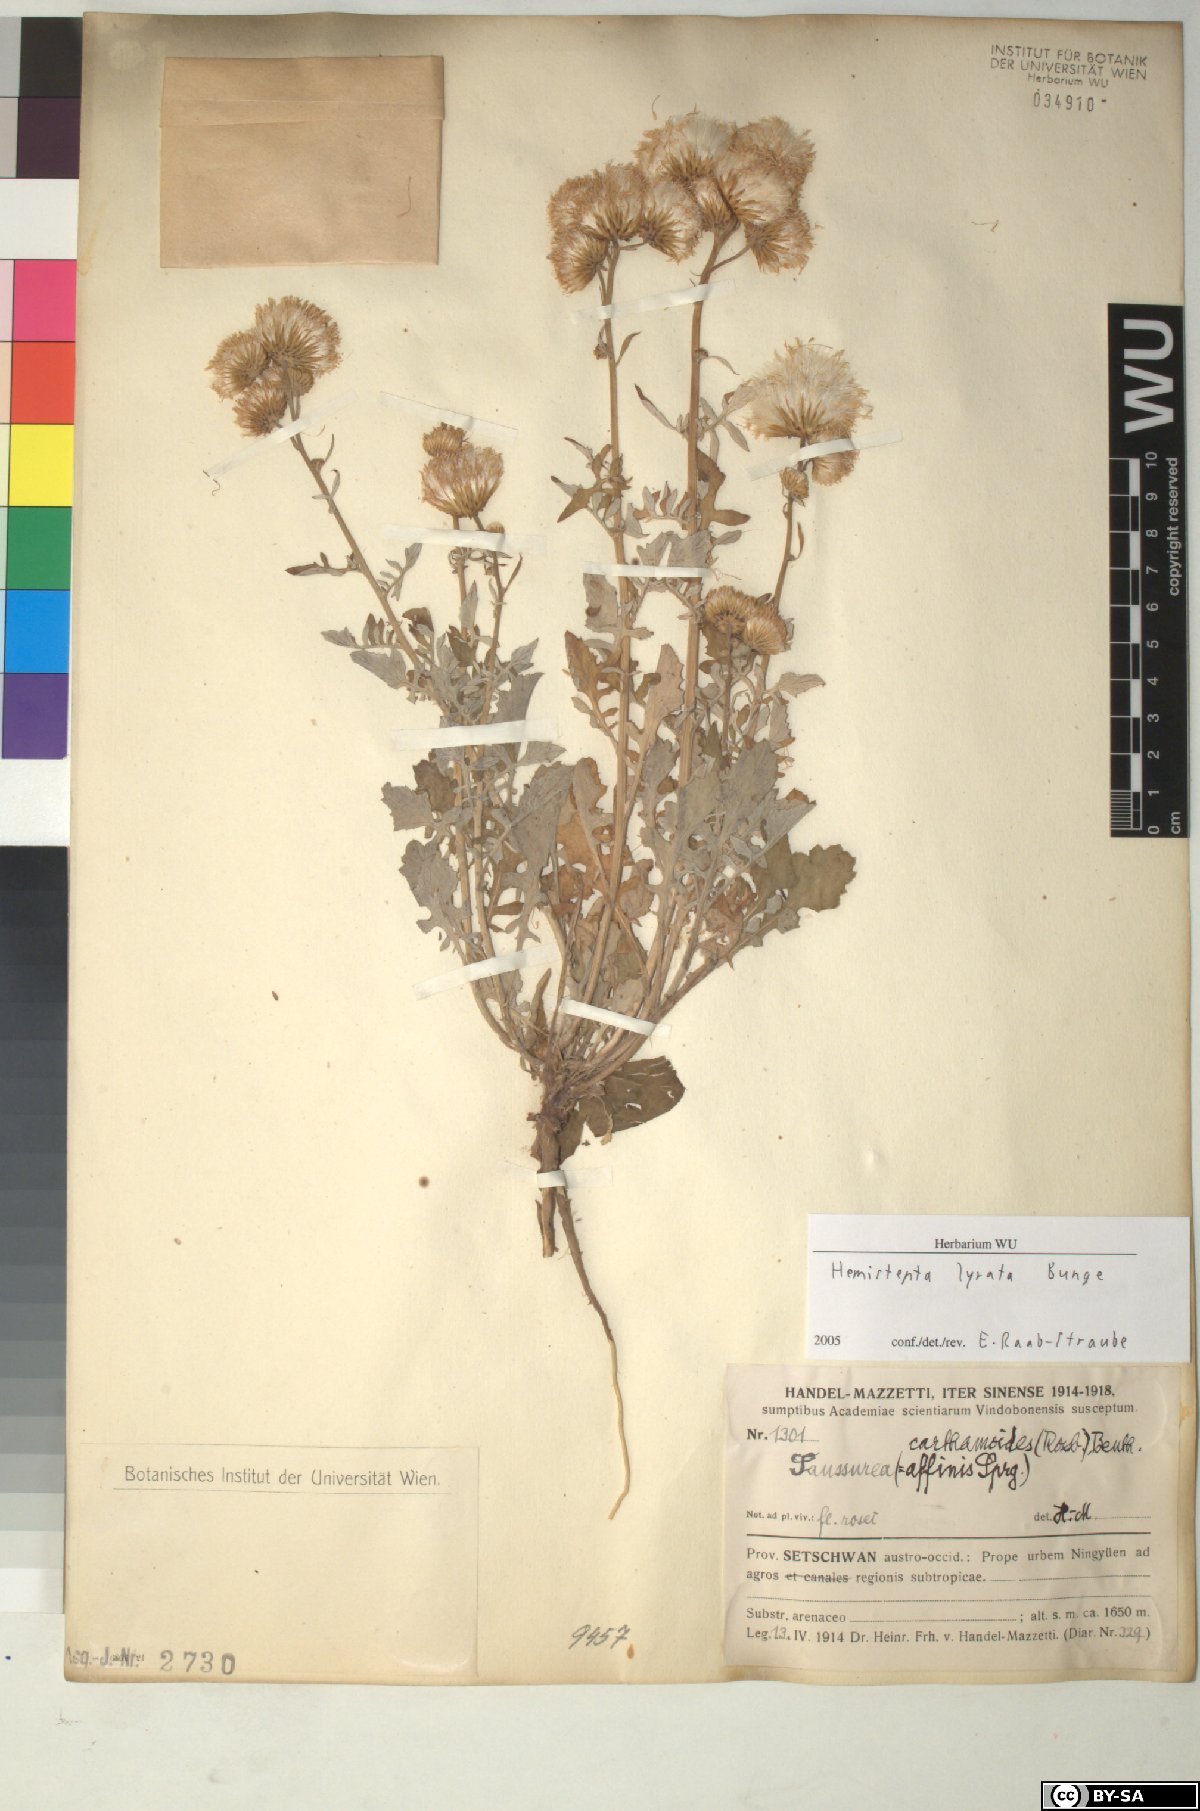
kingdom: Plantae
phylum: Tracheophyta
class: Magnoliopsida
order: Asterales
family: Asteraceae
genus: Saussurea
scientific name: Saussurea Hemisteptia lyrata
